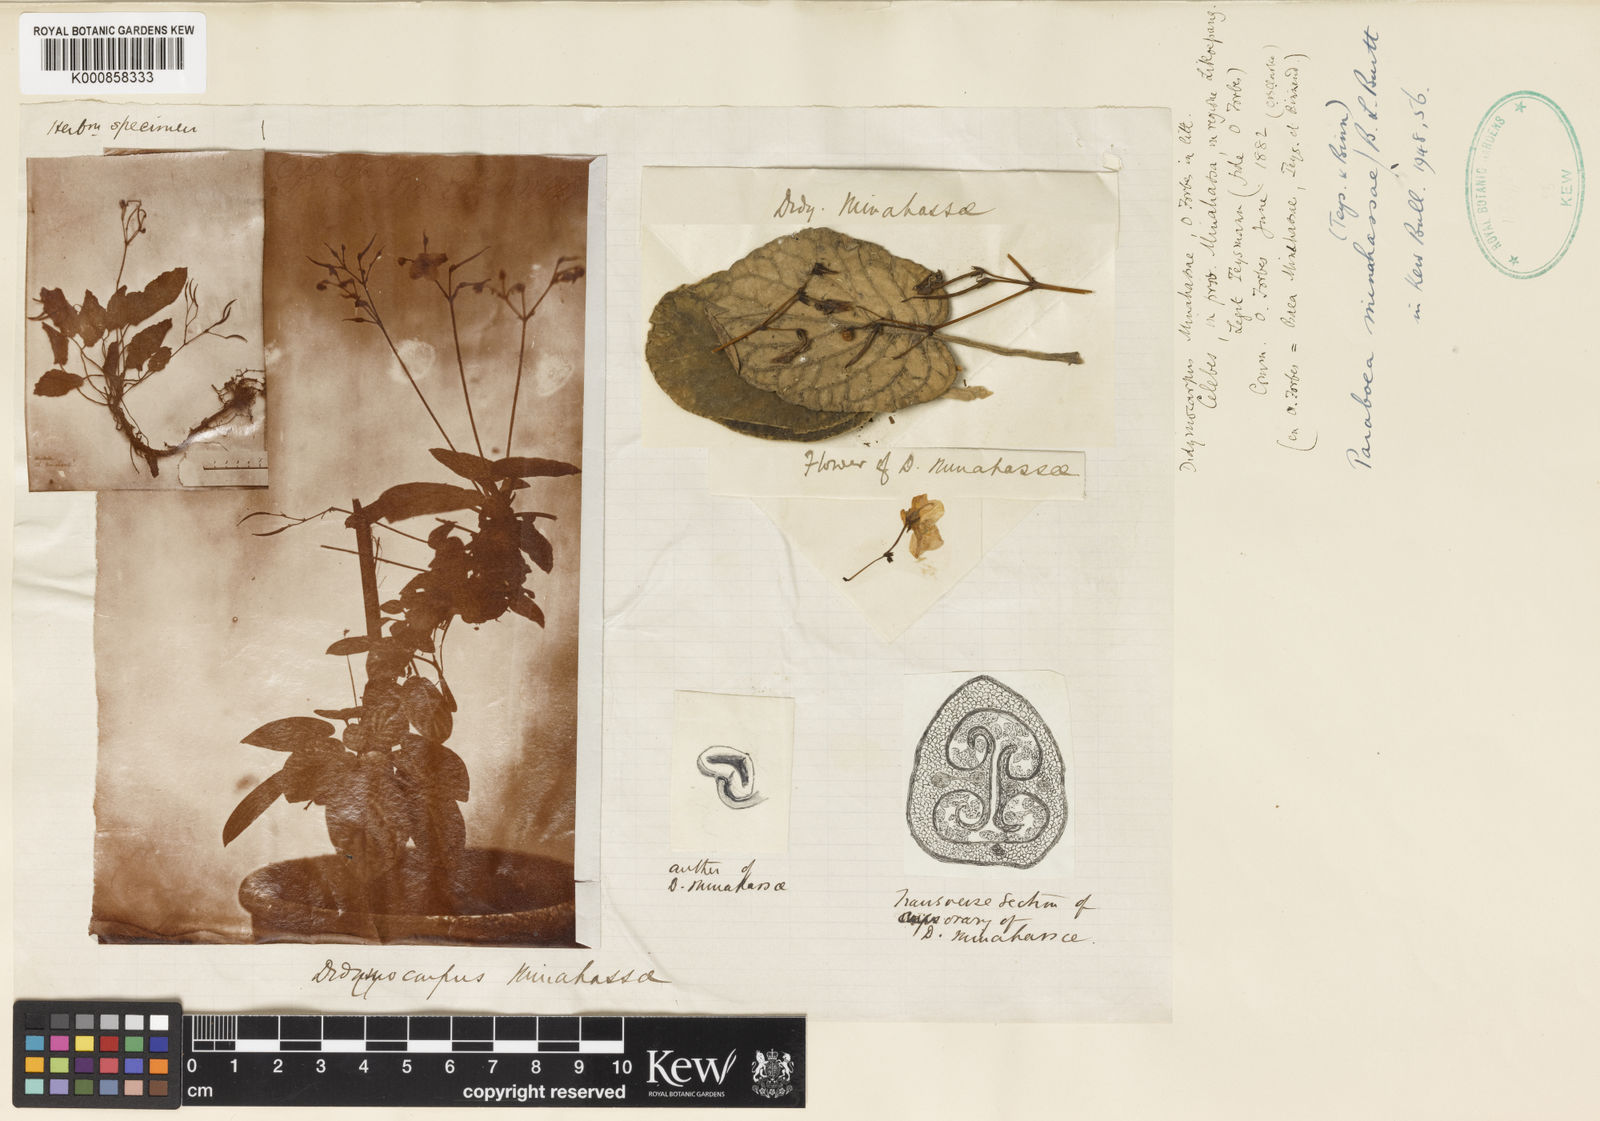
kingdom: Plantae
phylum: Tracheophyta
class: Magnoliopsida
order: Lamiales
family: Gesneriaceae
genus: Paraboea
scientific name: Paraboea minahassae
